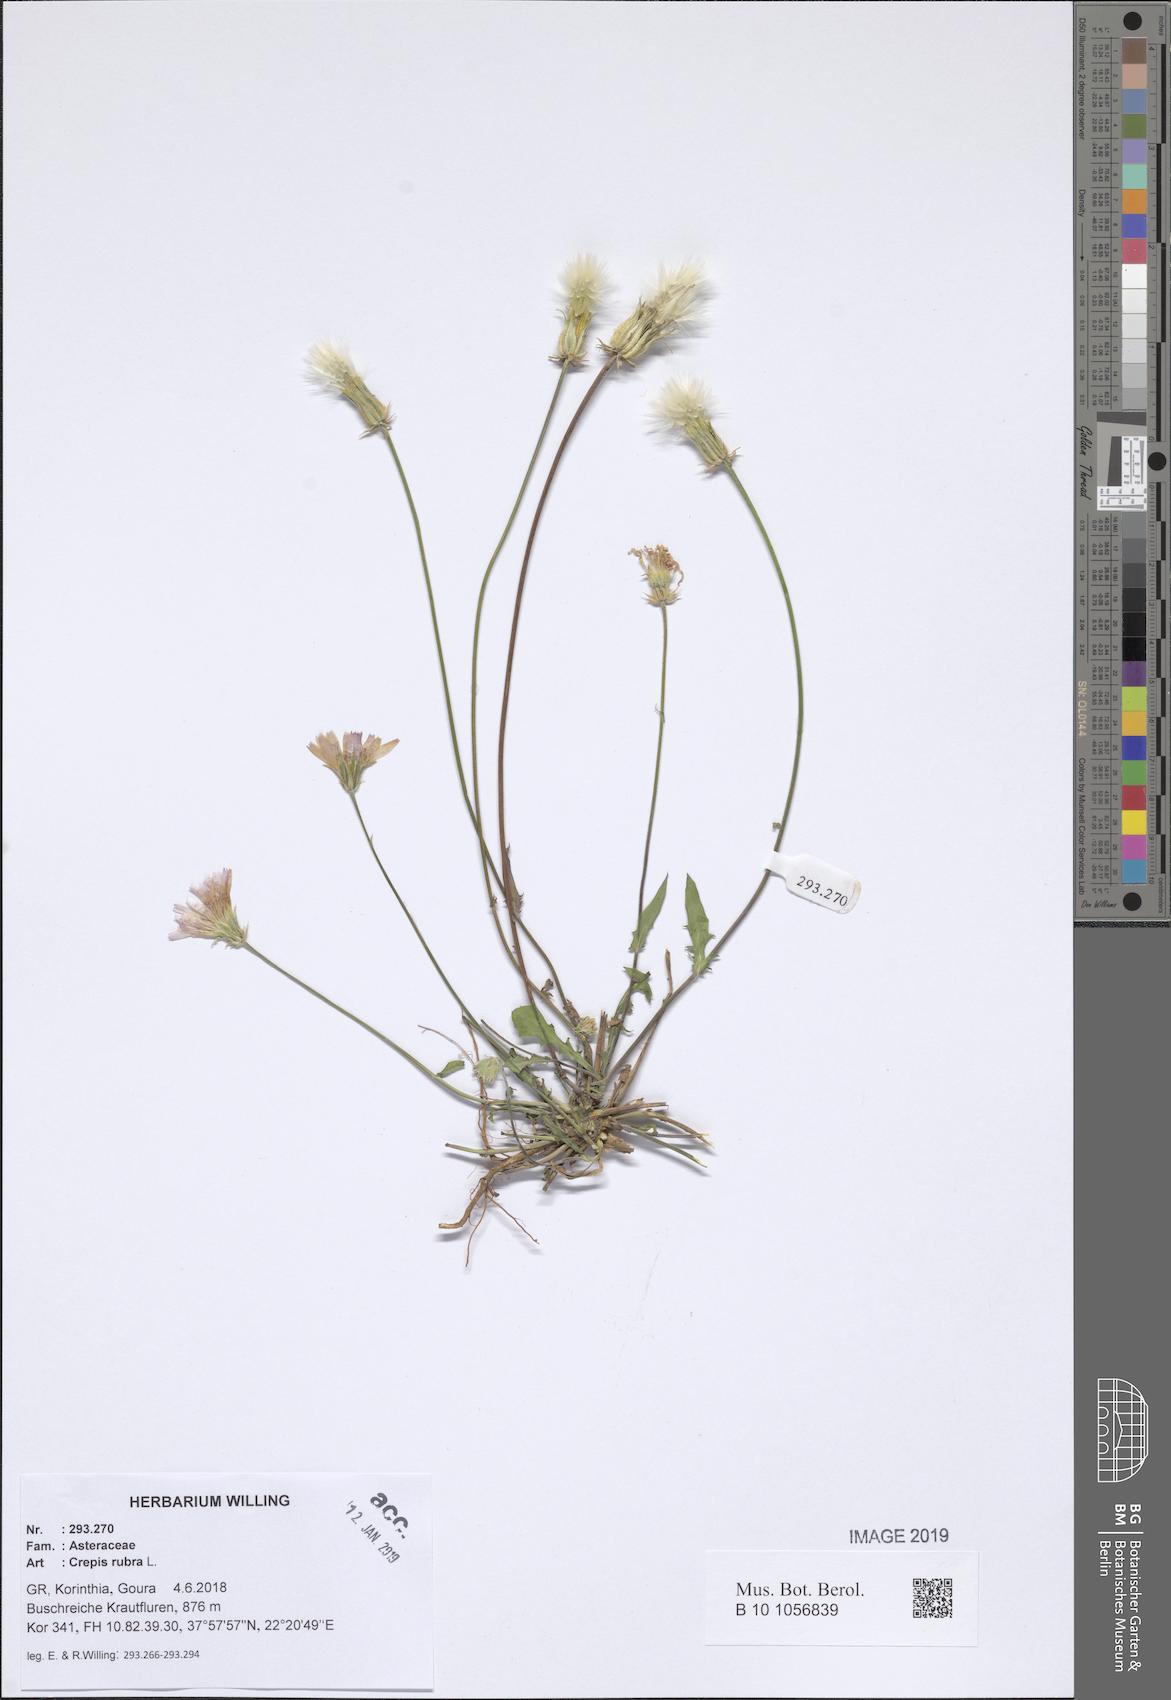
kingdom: Plantae
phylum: Tracheophyta
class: Magnoliopsida
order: Asterales
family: Asteraceae
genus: Crepis
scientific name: Crepis rubra
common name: Pink hawk's-beard
